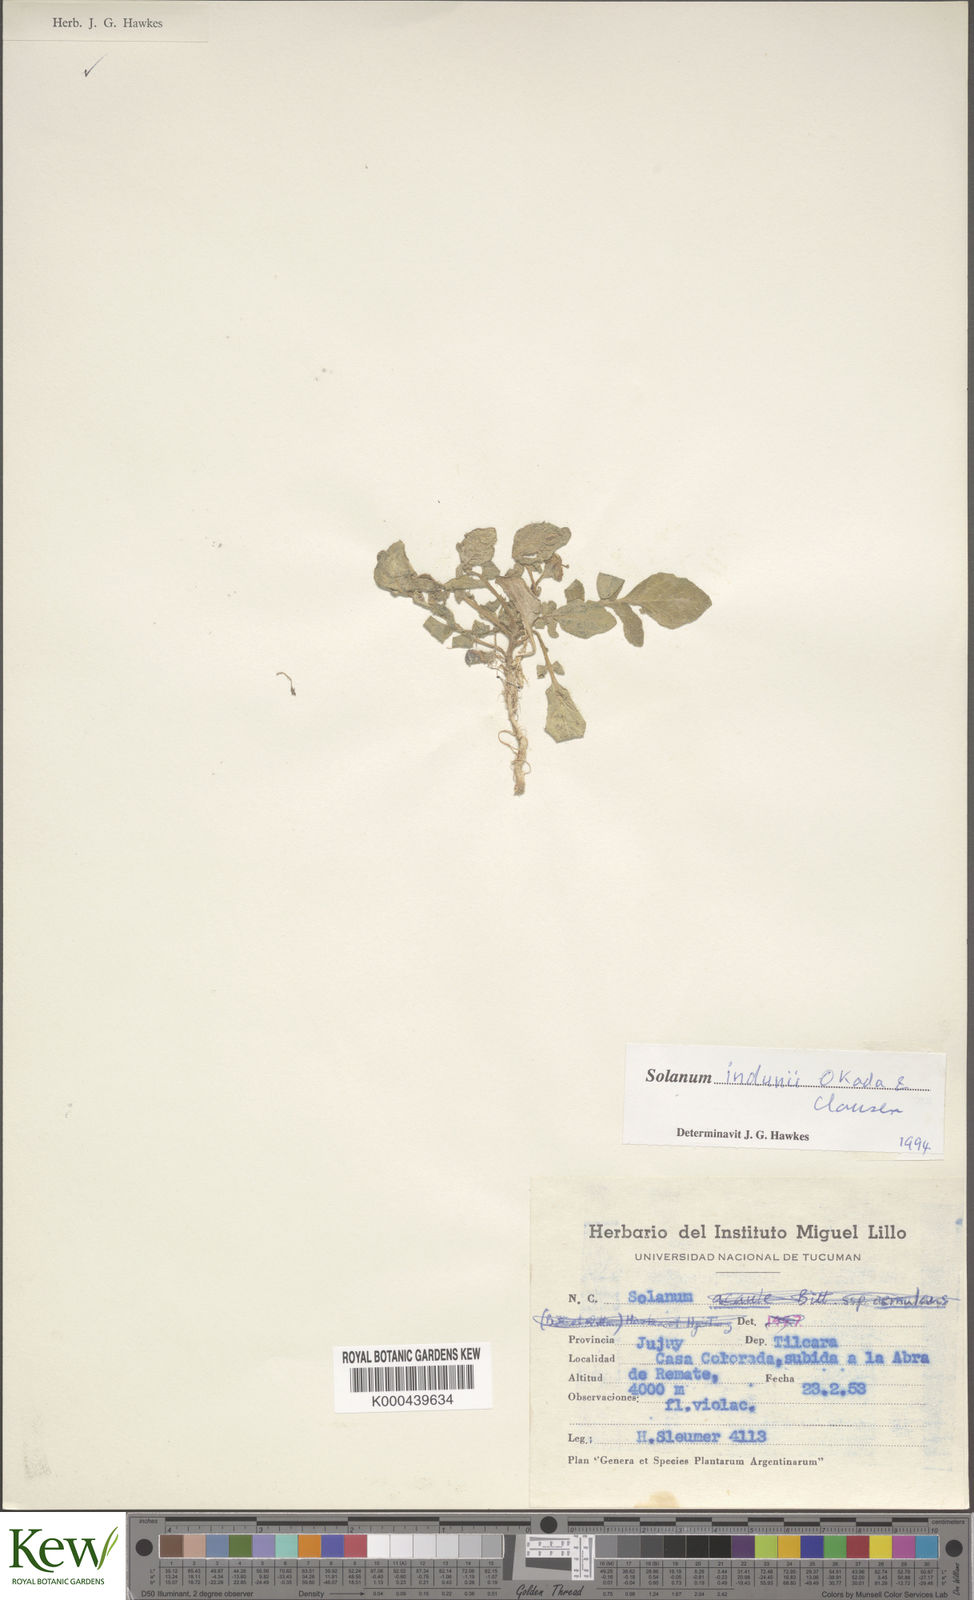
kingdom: Plantae
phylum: Tracheophyta
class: Magnoliopsida
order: Solanales
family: Solanaceae
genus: Solanum
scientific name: Solanum
